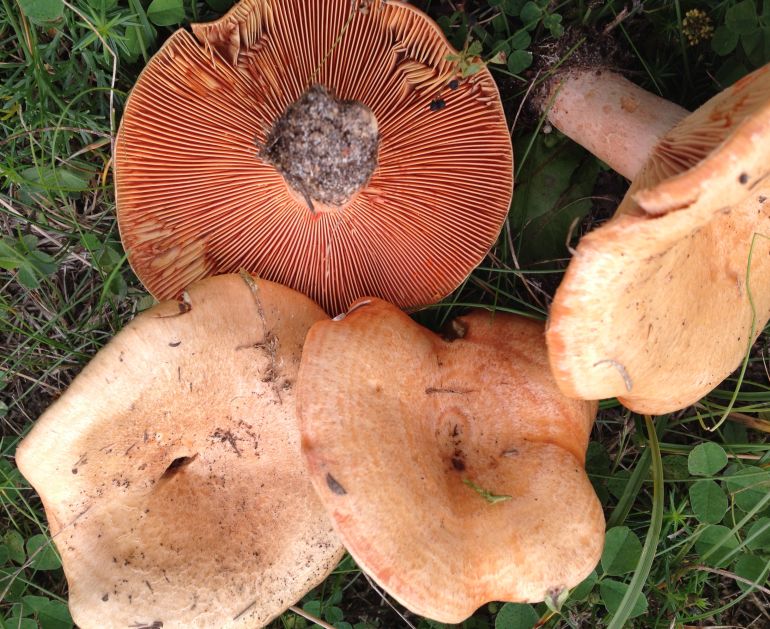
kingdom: Fungi
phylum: Basidiomycota
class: Agaricomycetes
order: Russulales
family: Russulaceae
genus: Lactarius
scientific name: Lactarius deliciosus
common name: velsmagende mælkehat
